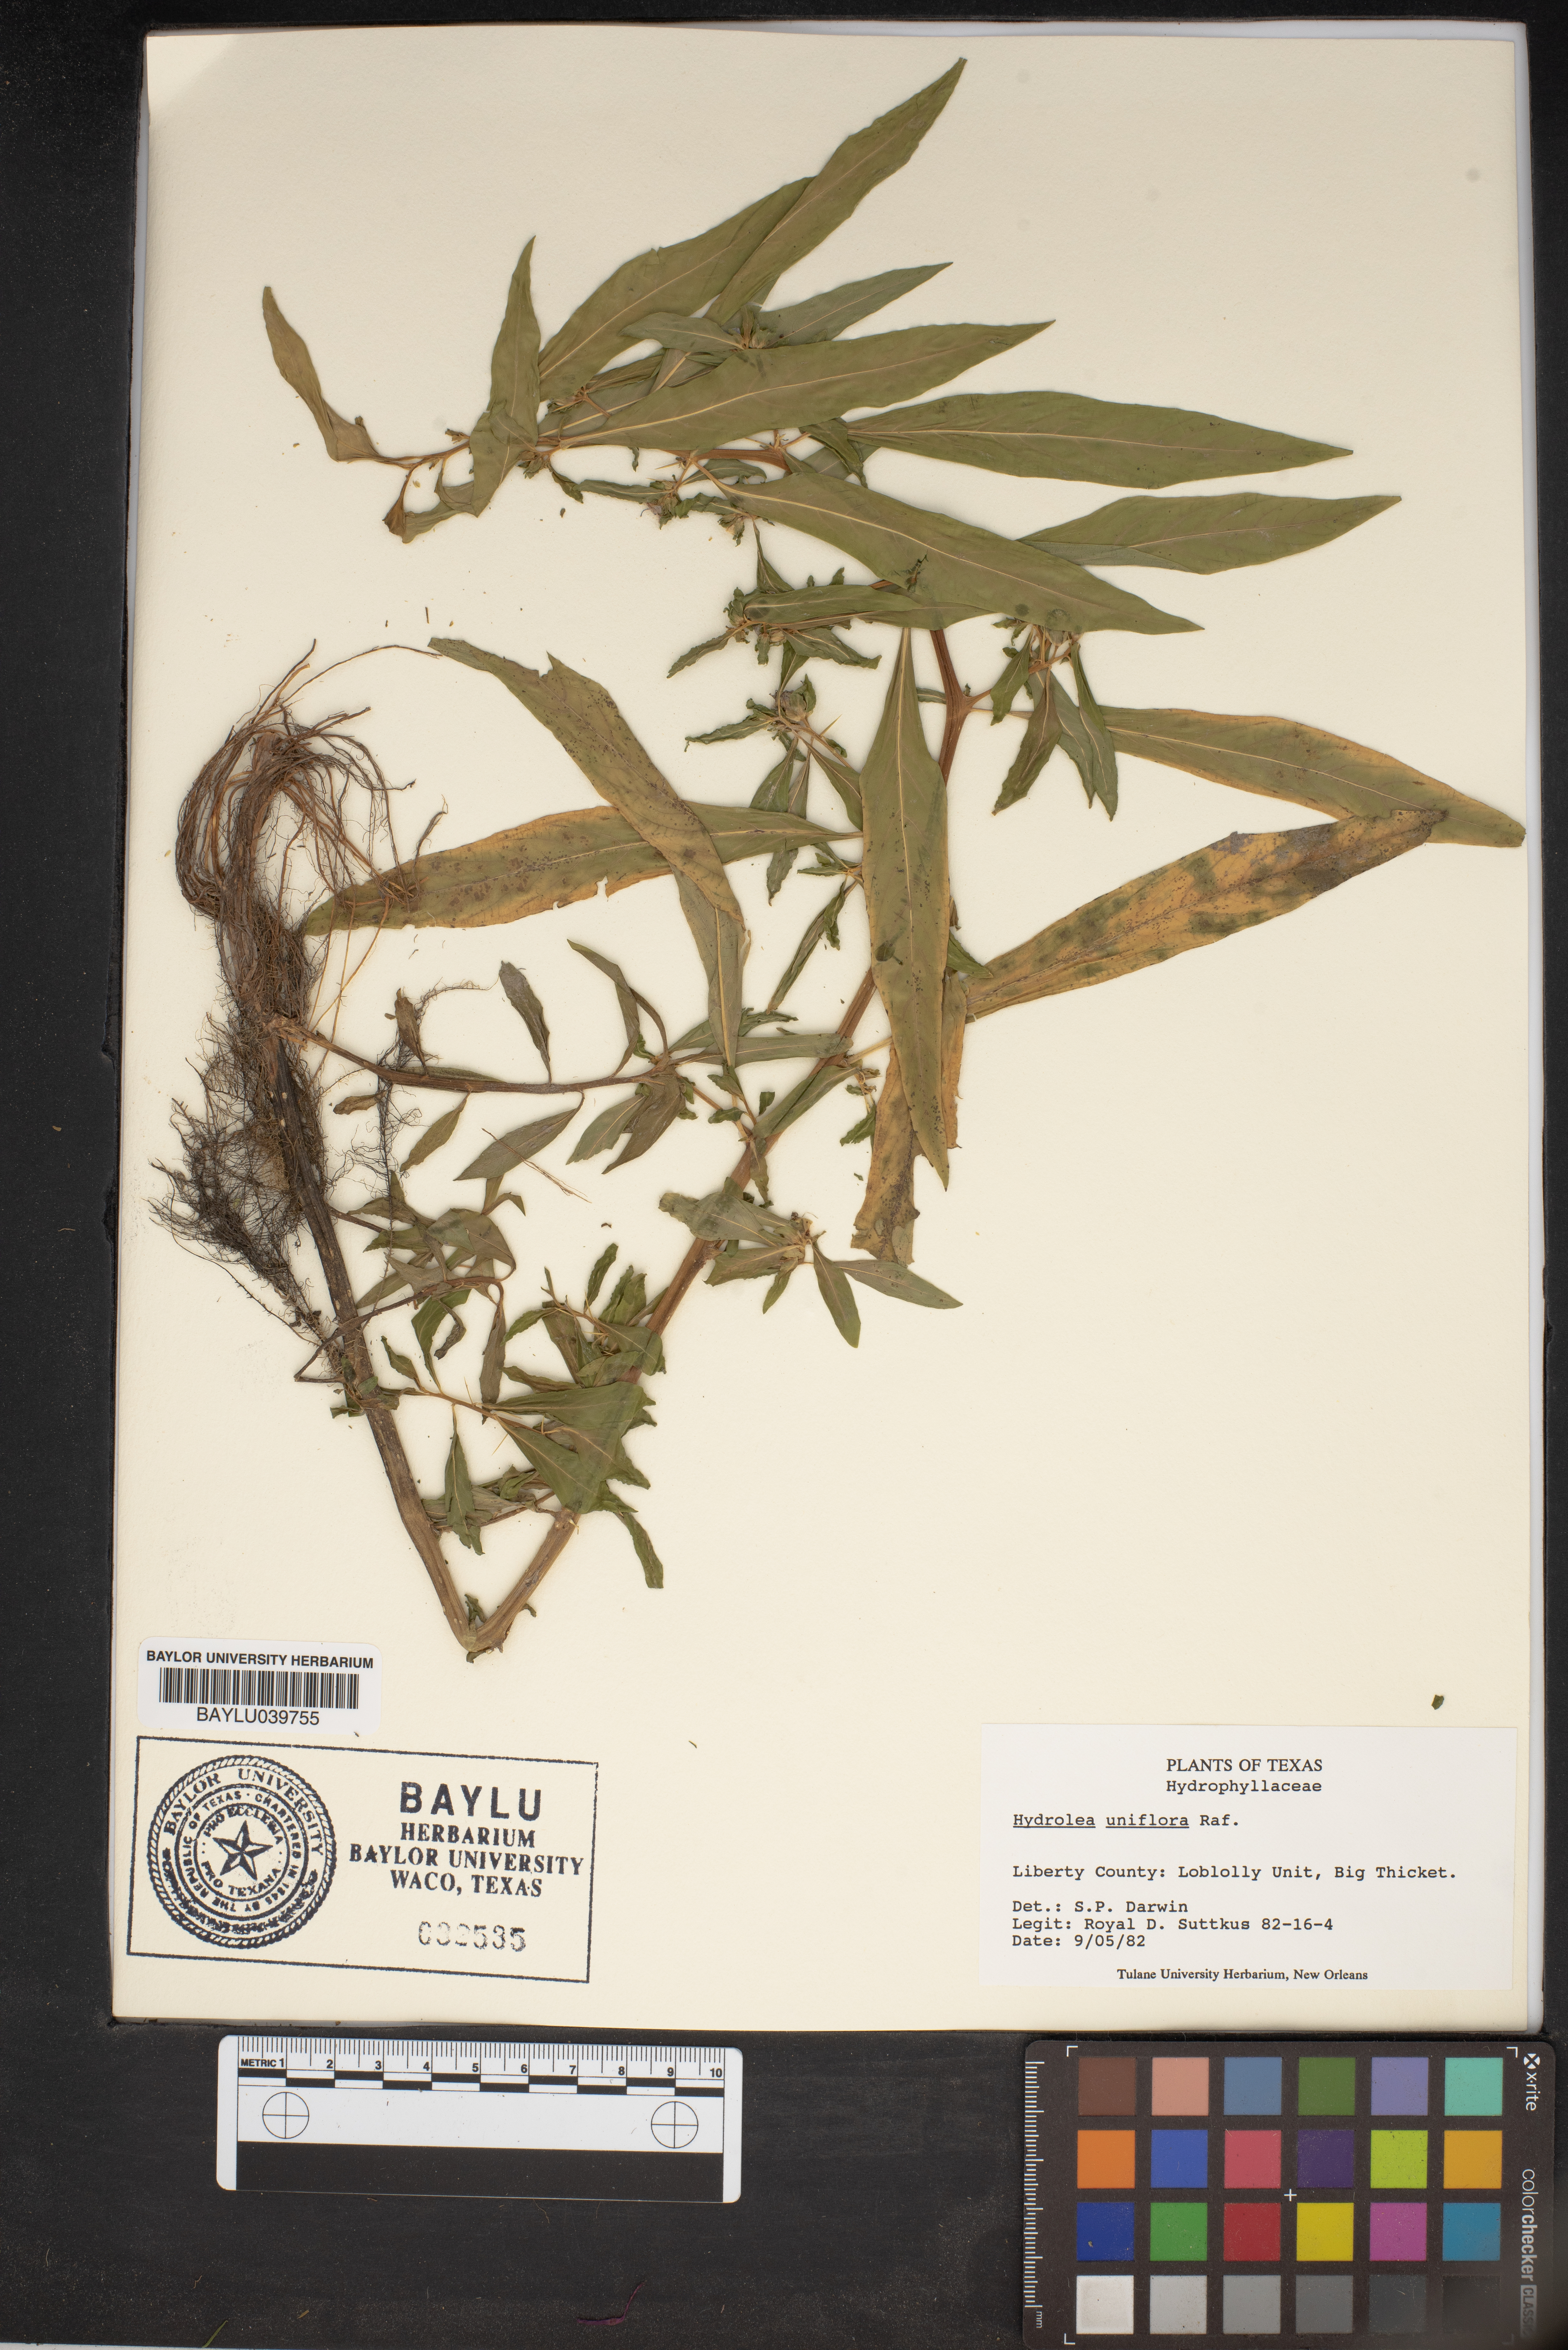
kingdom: Plantae
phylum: Tracheophyta
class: Magnoliopsida
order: Solanales
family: Hydroleaceae
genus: Hydrolea
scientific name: Hydrolea uniflora
